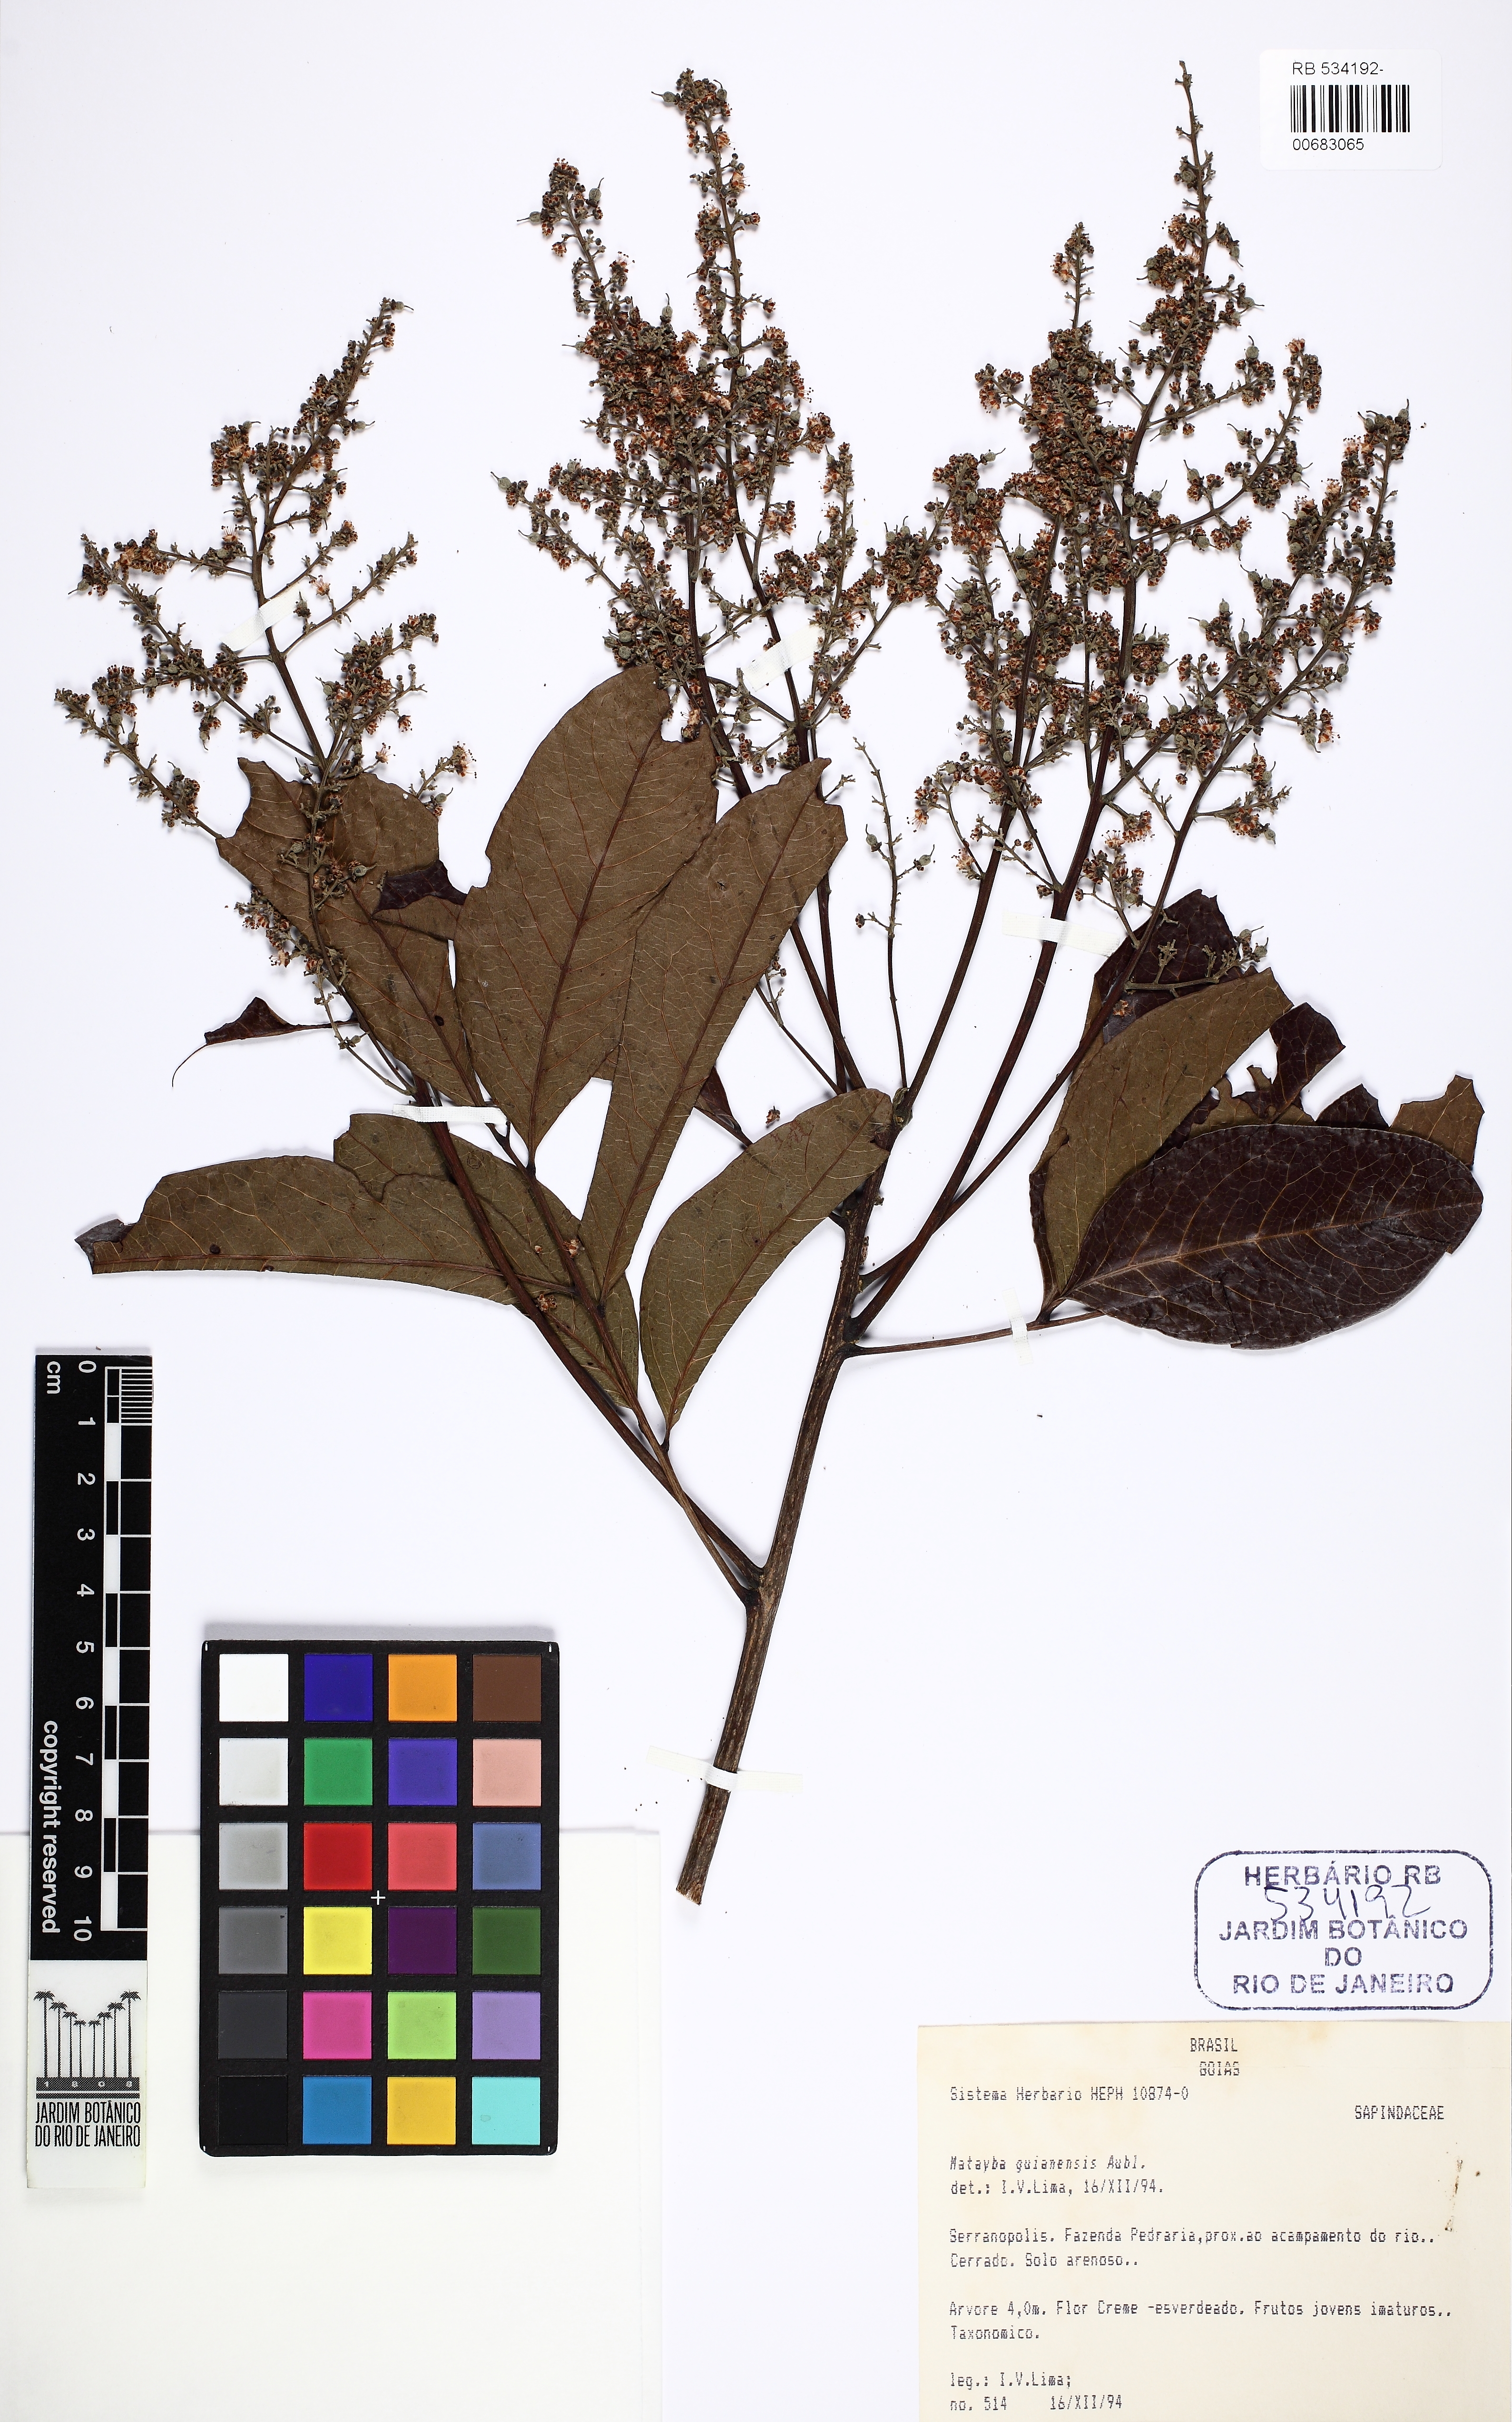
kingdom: Plantae
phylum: Tracheophyta
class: Magnoliopsida
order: Sapindales
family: Sapindaceae
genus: Matayba
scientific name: Matayba guianensis
